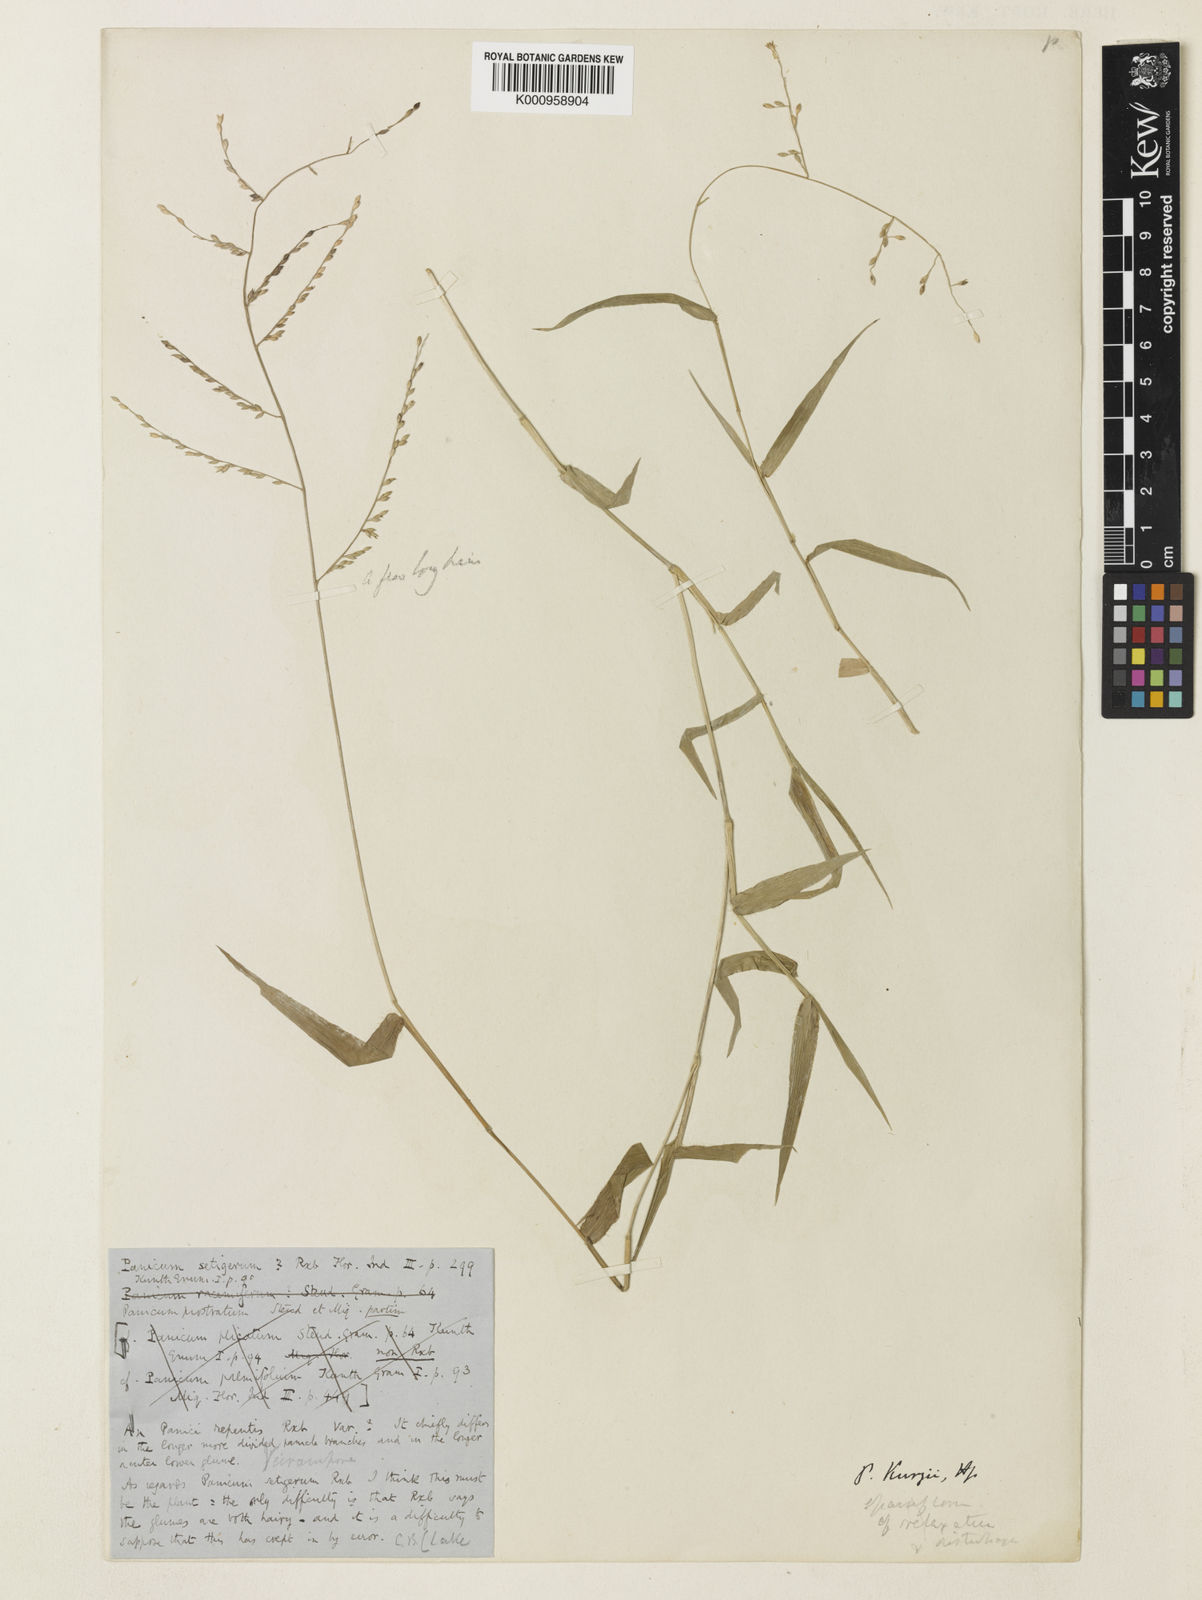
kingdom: Plantae
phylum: Tracheophyta
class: Liliopsida
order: Poales
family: Poaceae
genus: Urochloa
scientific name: Urochloa kurzii
